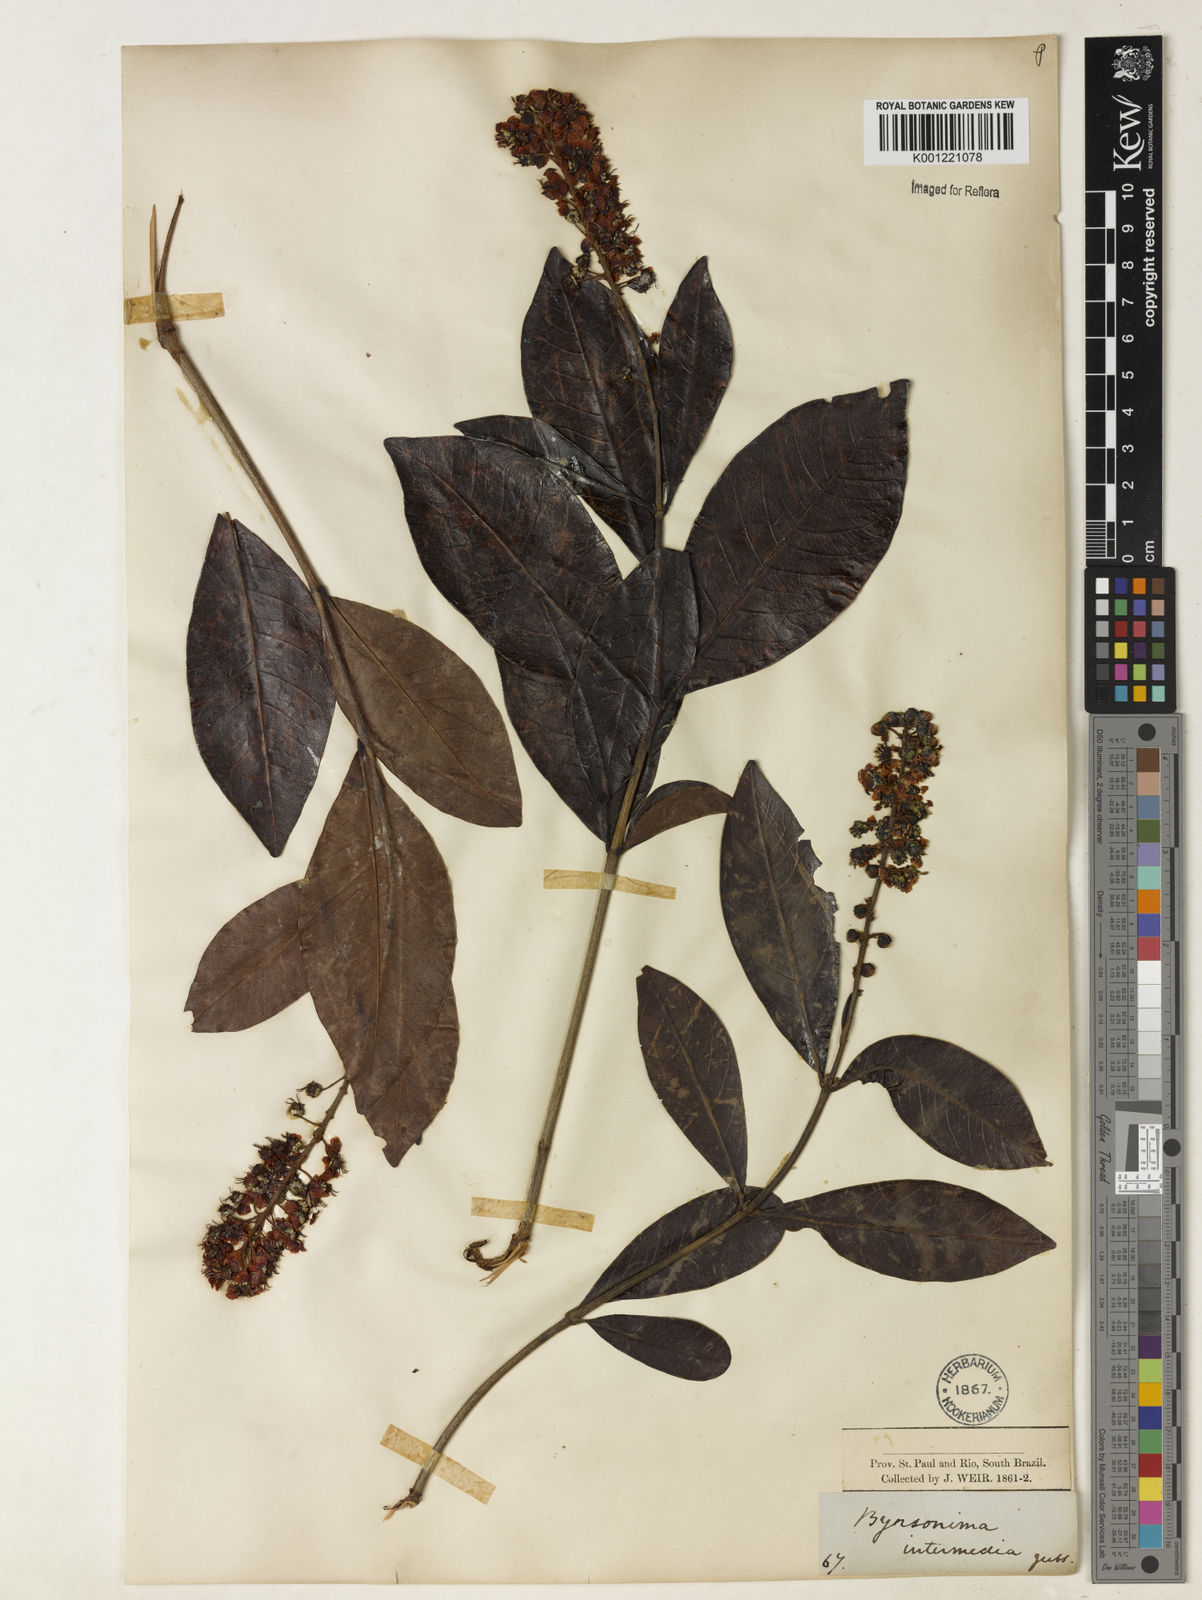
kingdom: Plantae
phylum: Tracheophyta
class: Magnoliopsida
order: Malpighiales
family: Malpighiaceae
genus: Byrsonima
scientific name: Byrsonima intermedia
